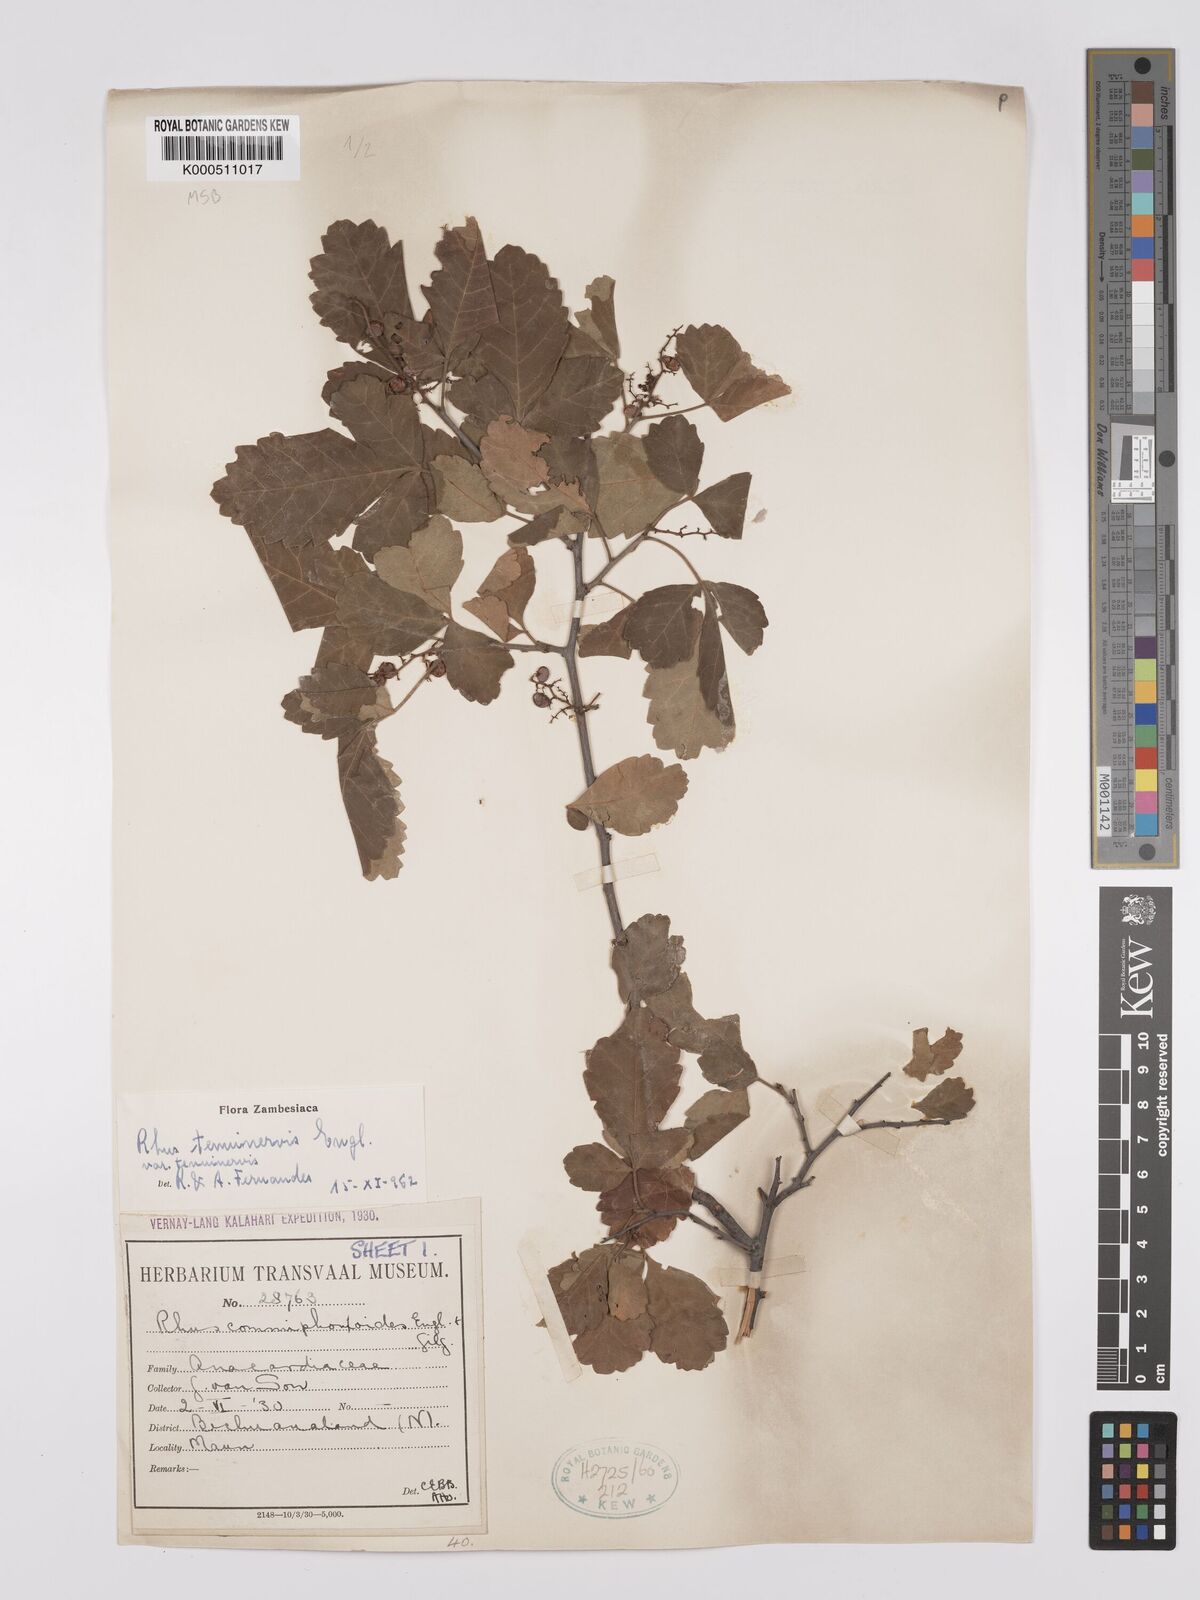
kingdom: Plantae
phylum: Tracheophyta
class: Magnoliopsida
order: Sapindales
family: Anacardiaceae
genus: Searsia
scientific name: Searsia tenuinervis
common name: Hyaena taaibos
